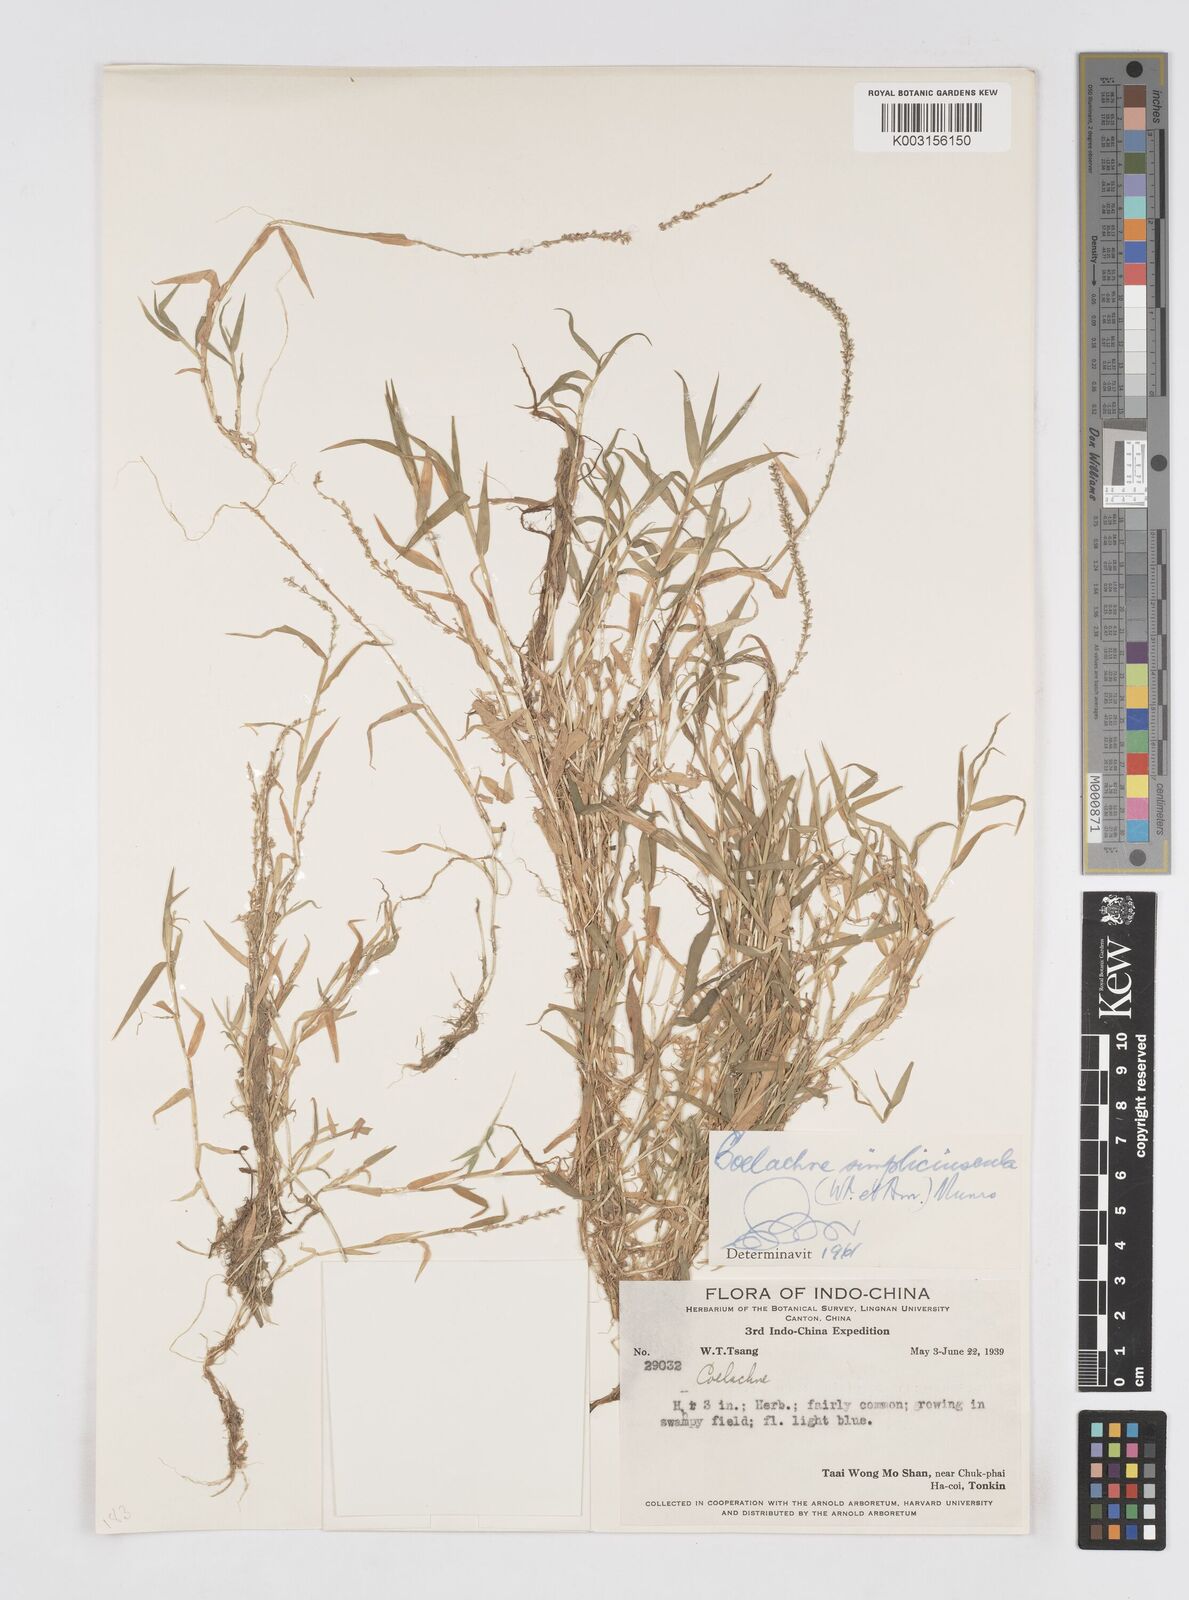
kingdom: Plantae
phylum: Tracheophyta
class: Liliopsida
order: Poales
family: Poaceae
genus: Coelachne
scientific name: Coelachne simpliciuscula
